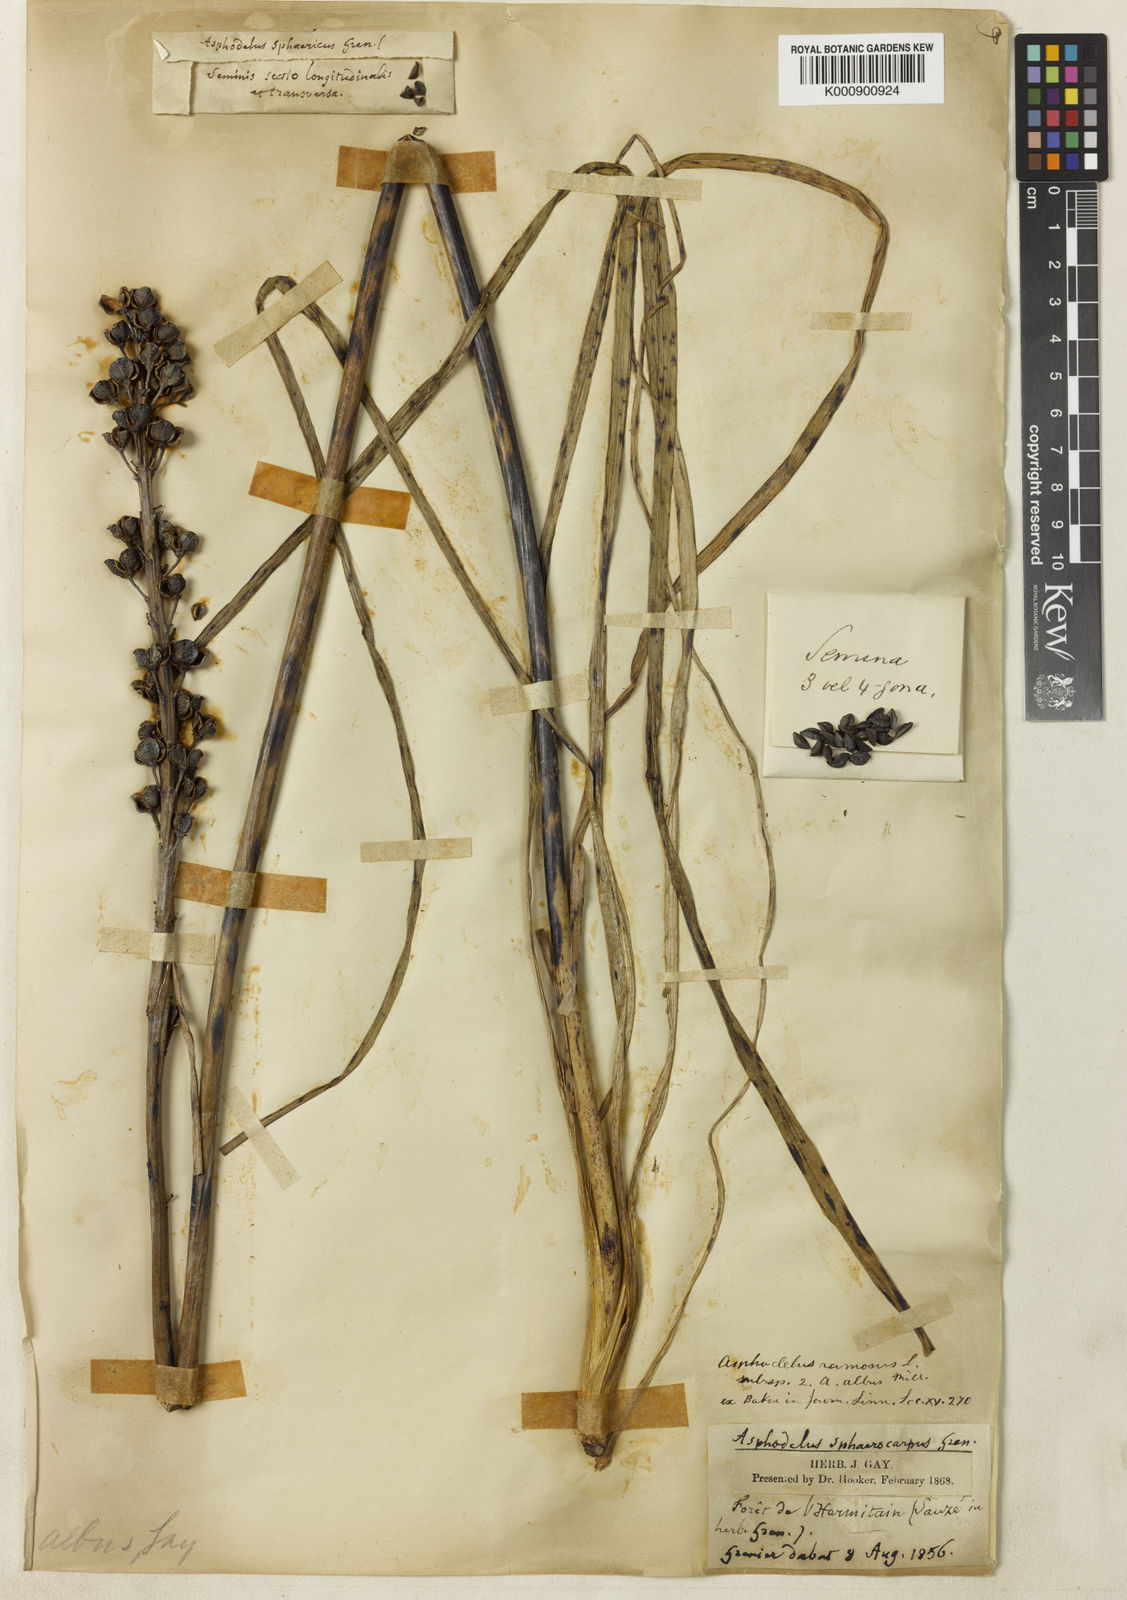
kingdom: Plantae
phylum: Tracheophyta
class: Liliopsida
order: Asparagales
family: Asphodelaceae
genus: Asphodelus
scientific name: Asphodelus albus
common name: White asphodel
